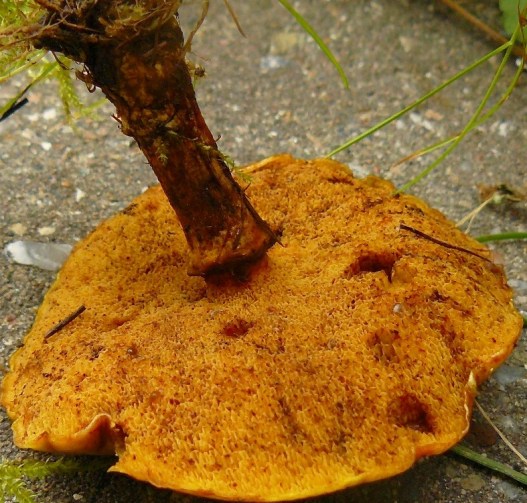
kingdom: Fungi
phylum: Basidiomycota
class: Agaricomycetes
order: Boletales
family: Suillaceae
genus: Suillus
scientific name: Suillus grevillei
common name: lærke-slimrørhat
